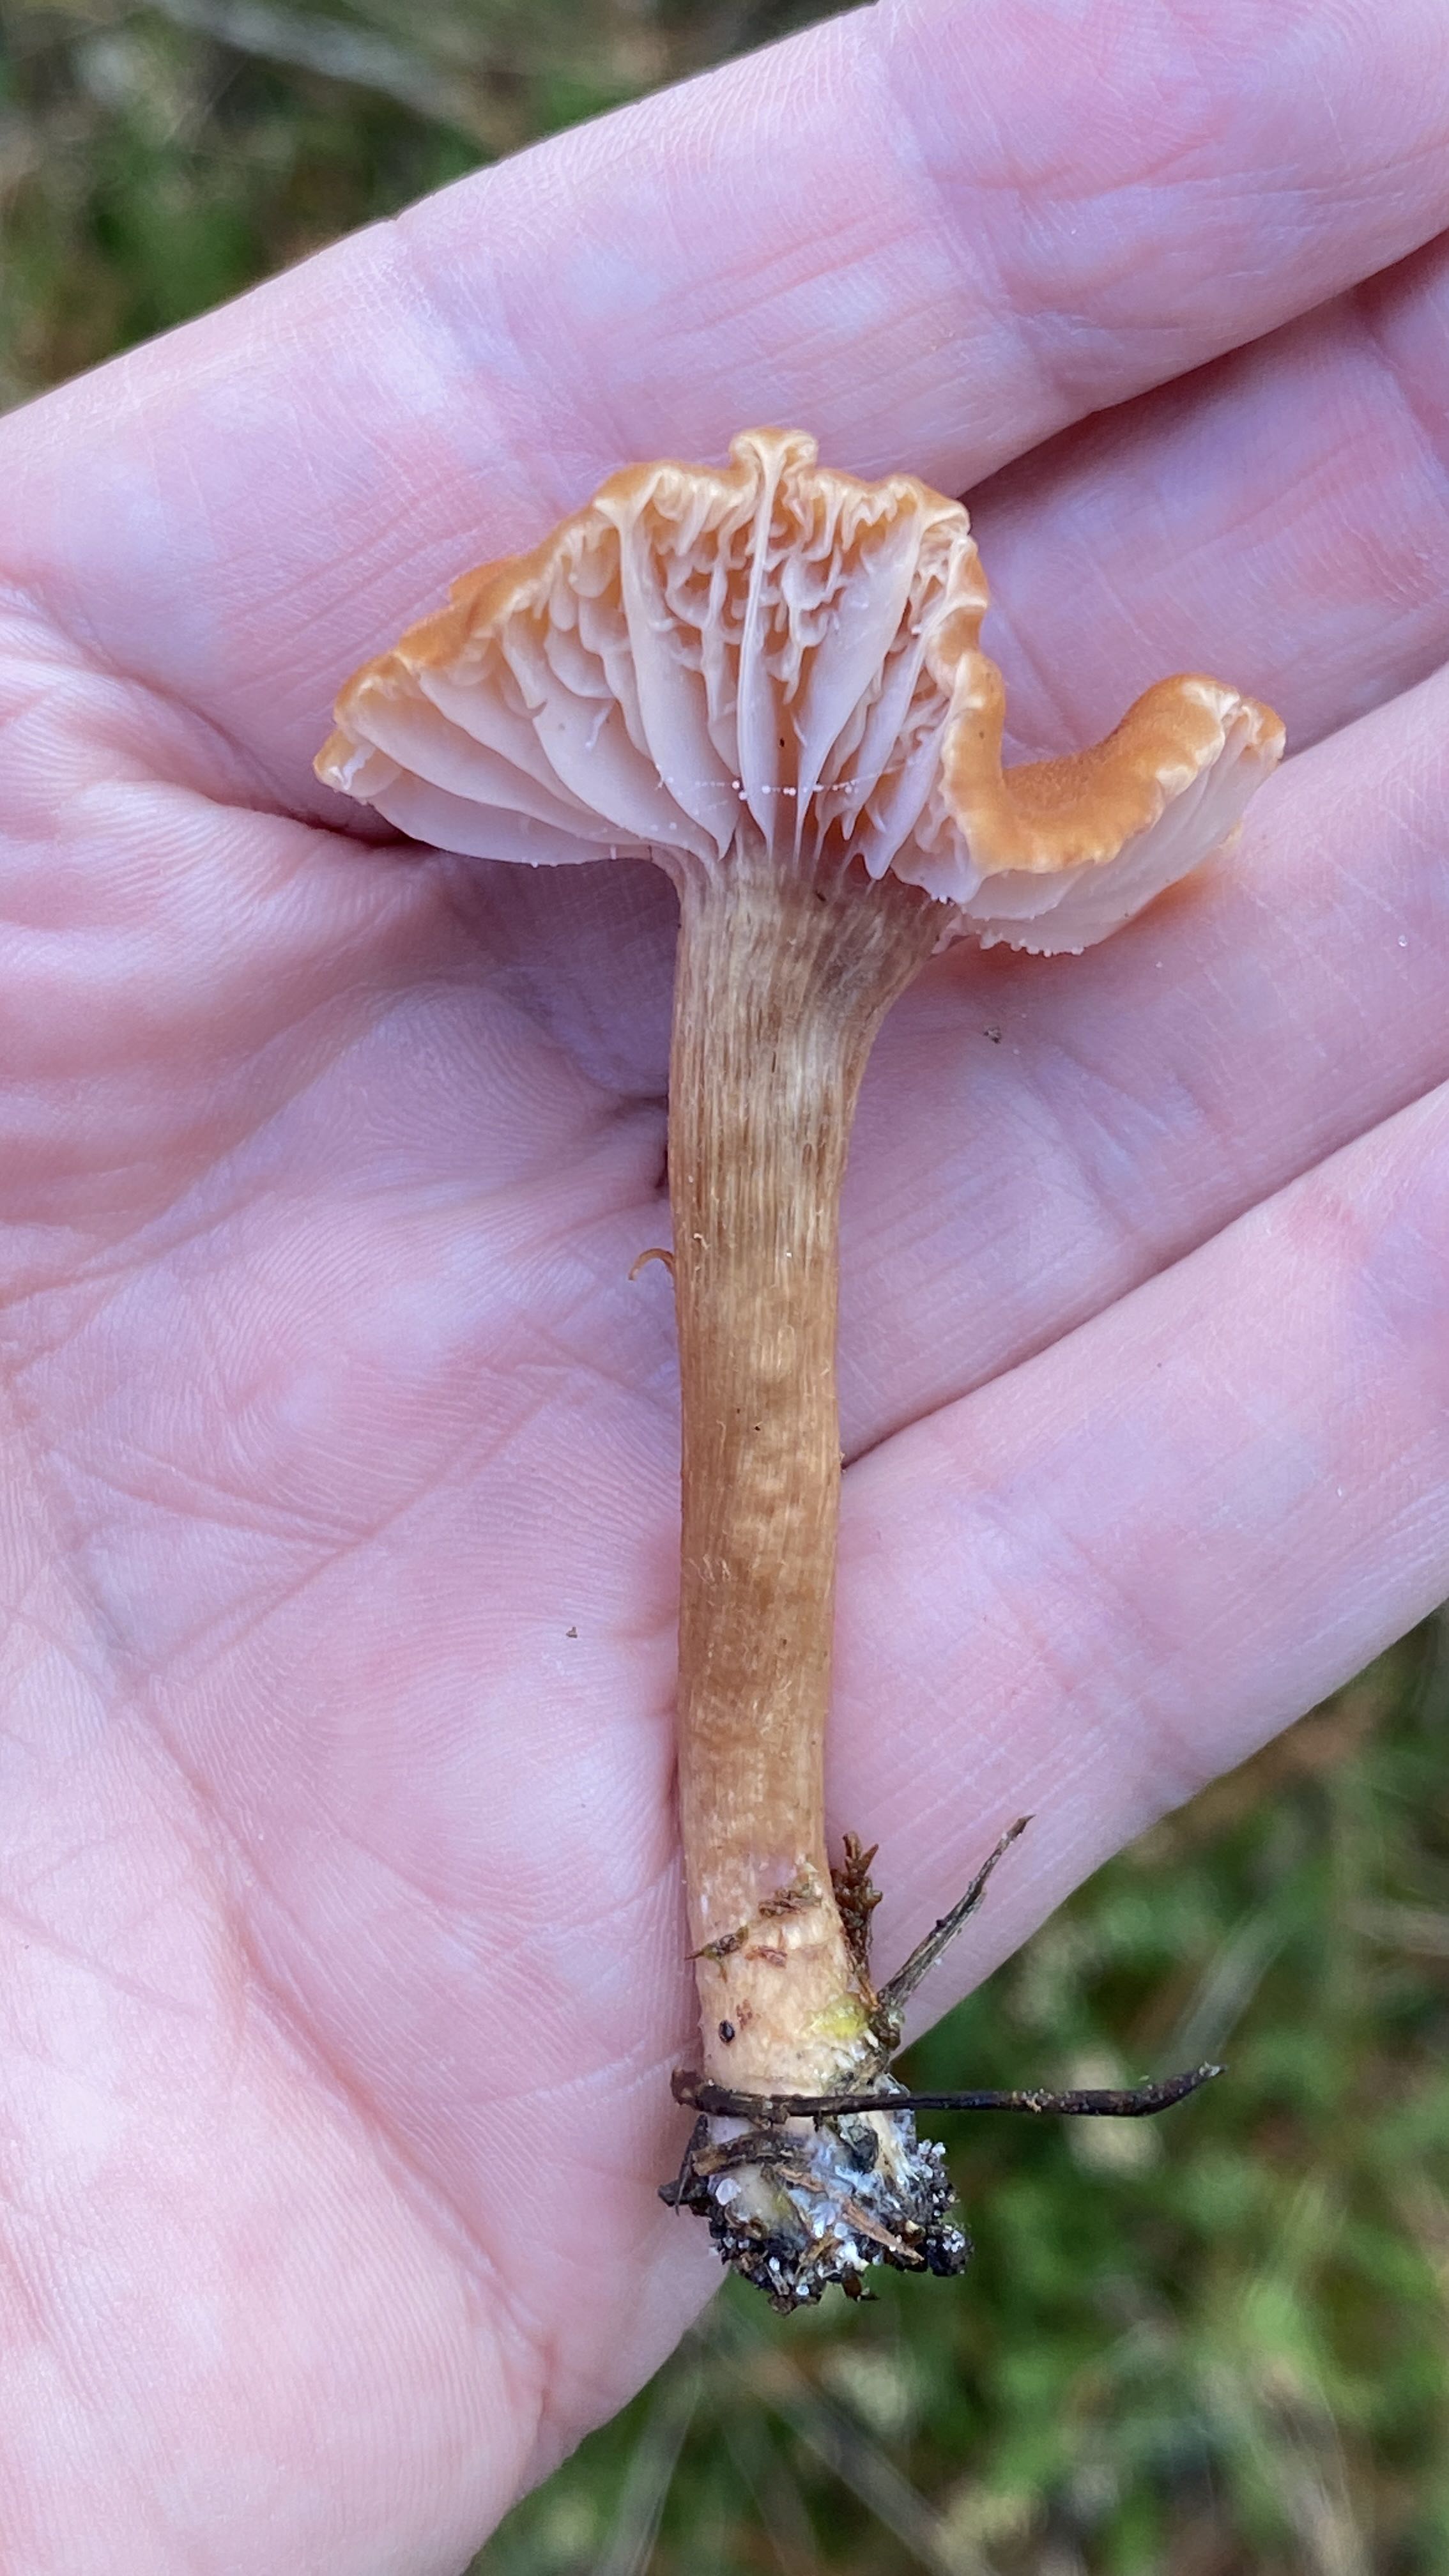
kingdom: Fungi
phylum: Basidiomycota
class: Agaricomycetes
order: Agaricales
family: Hydnangiaceae
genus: Laccaria
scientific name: Laccaria laccata
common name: rød ametysthat
